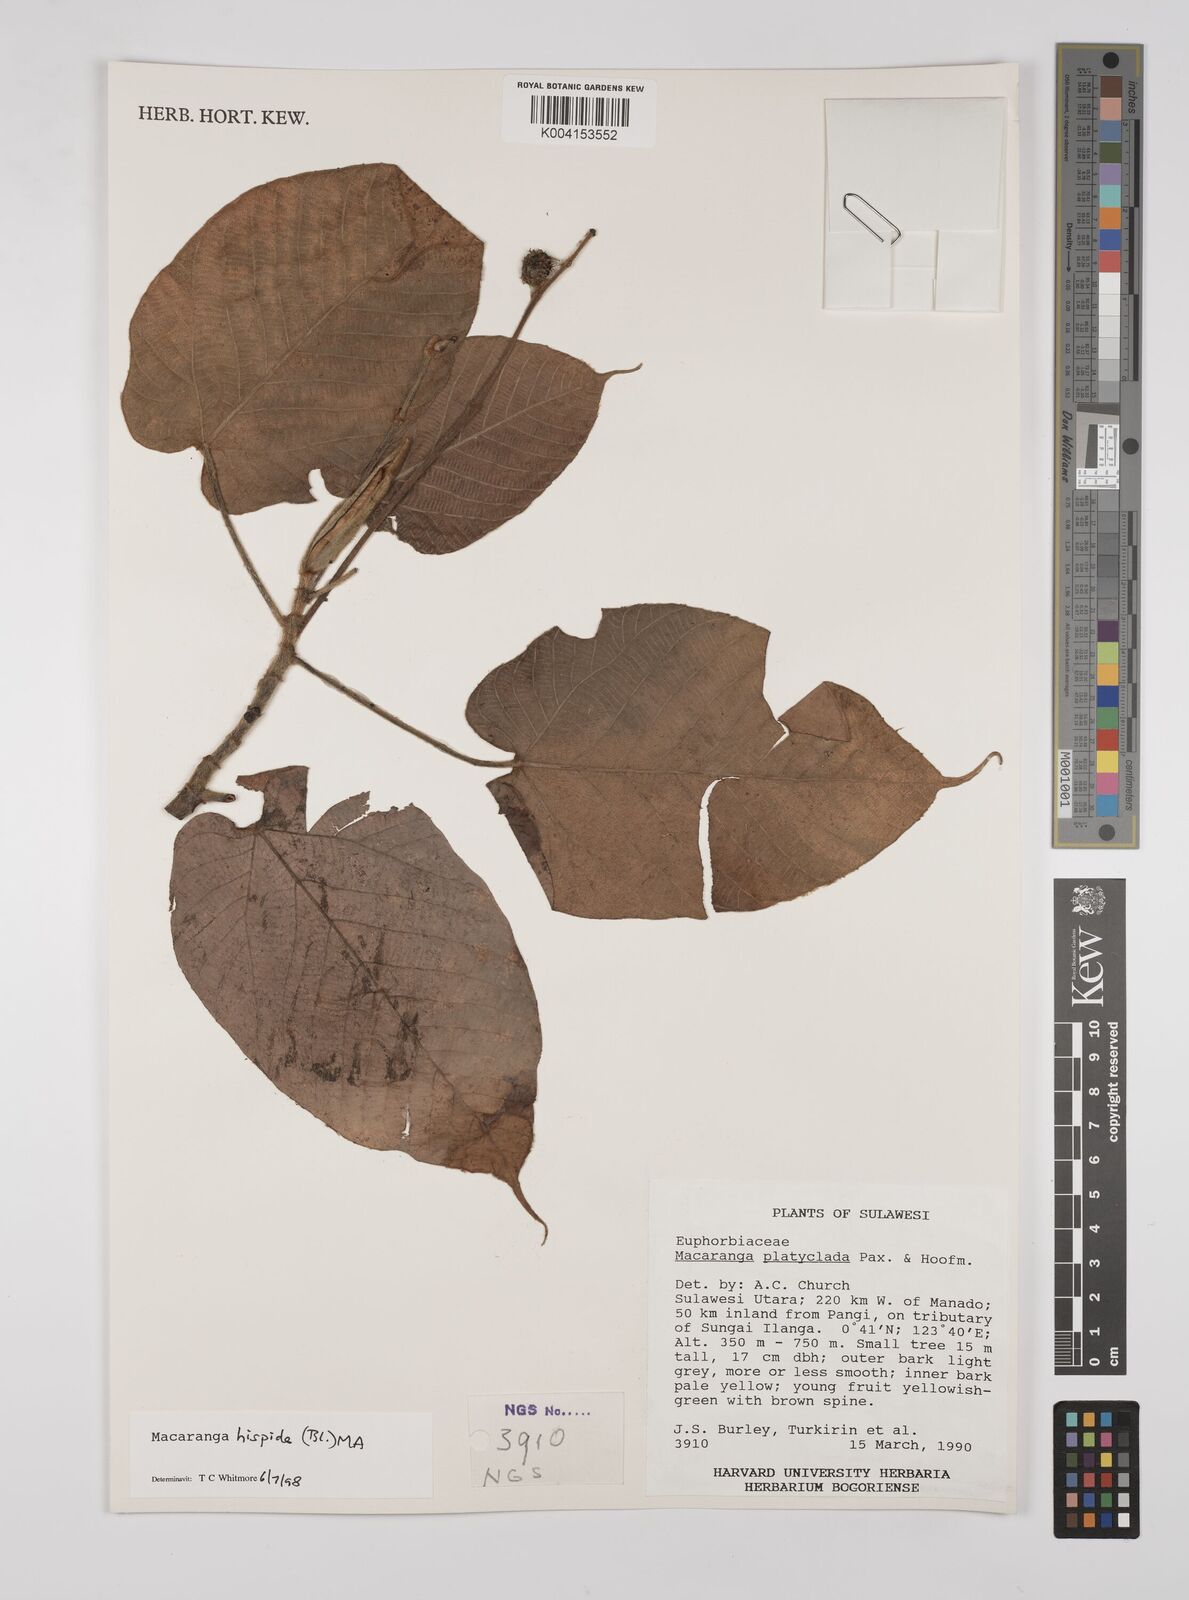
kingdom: Plantae
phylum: Tracheophyta
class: Magnoliopsida
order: Malpighiales
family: Euphorbiaceae
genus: Macaranga
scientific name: Macaranga hispida
